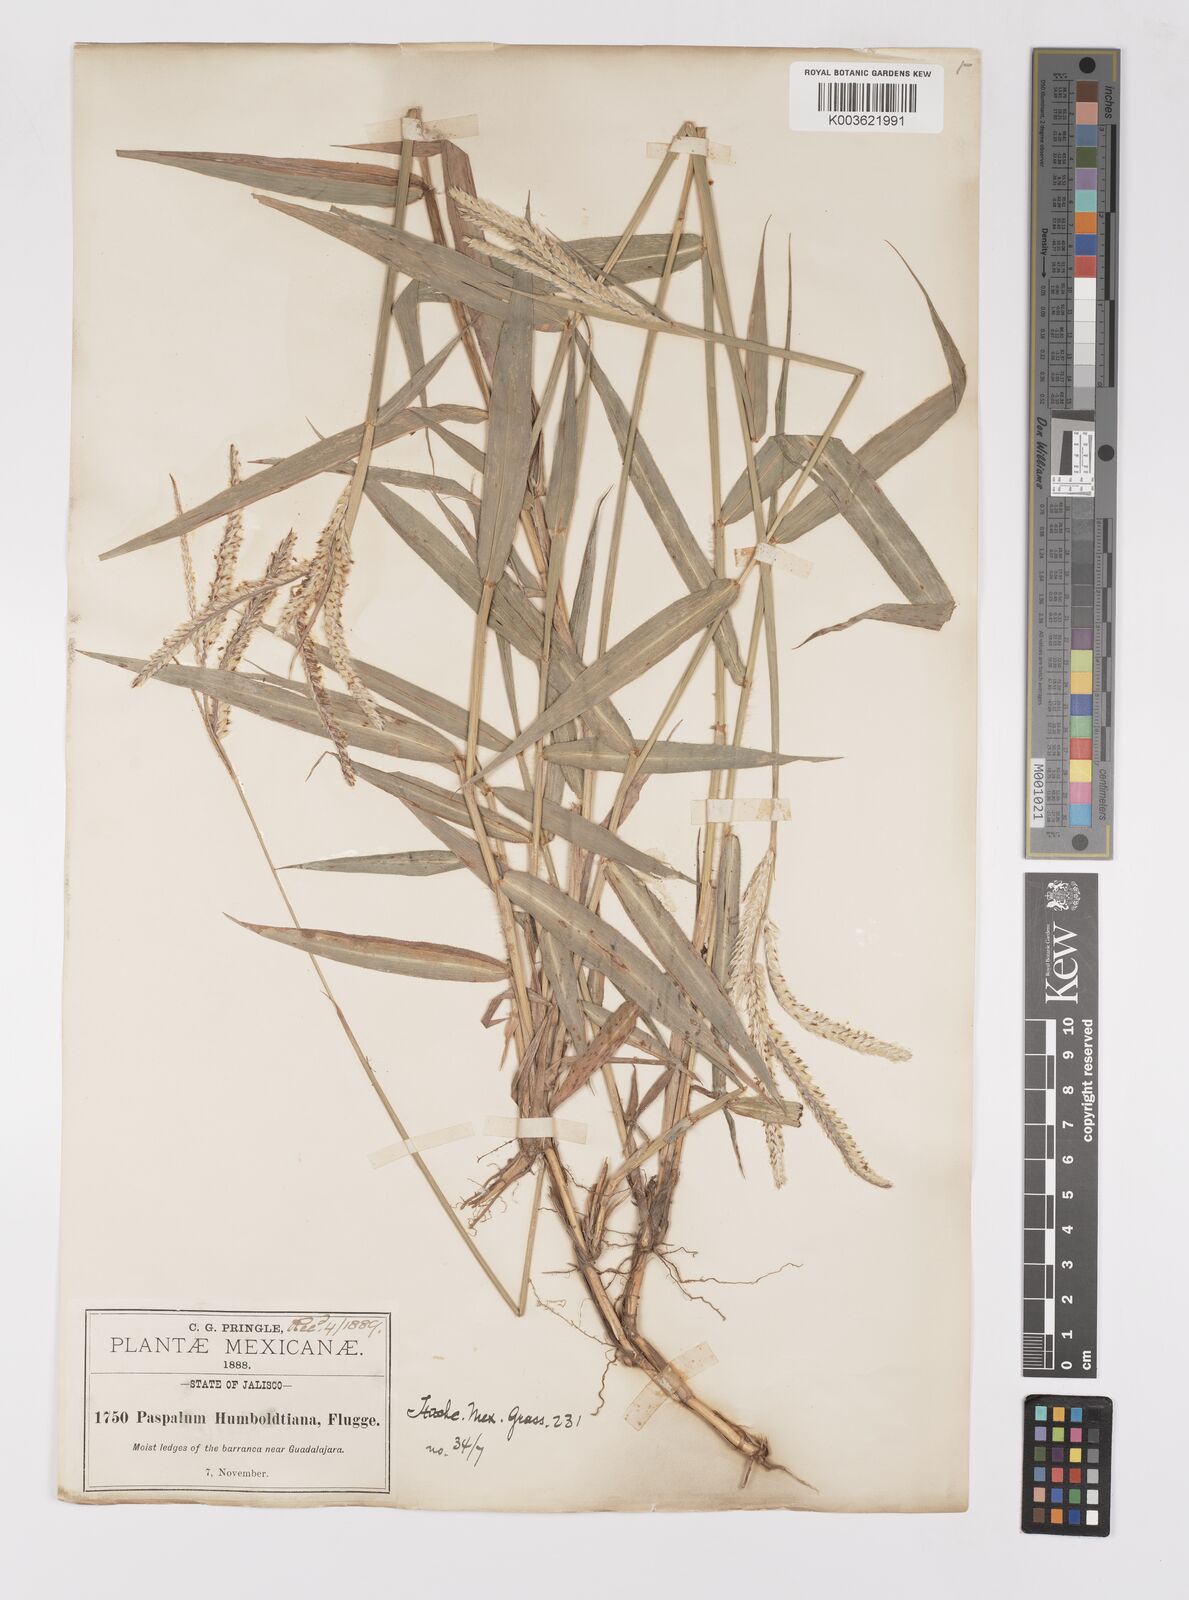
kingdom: Plantae
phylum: Tracheophyta
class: Liliopsida
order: Poales
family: Poaceae
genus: Paspalum
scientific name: Paspalum humboldtianum
